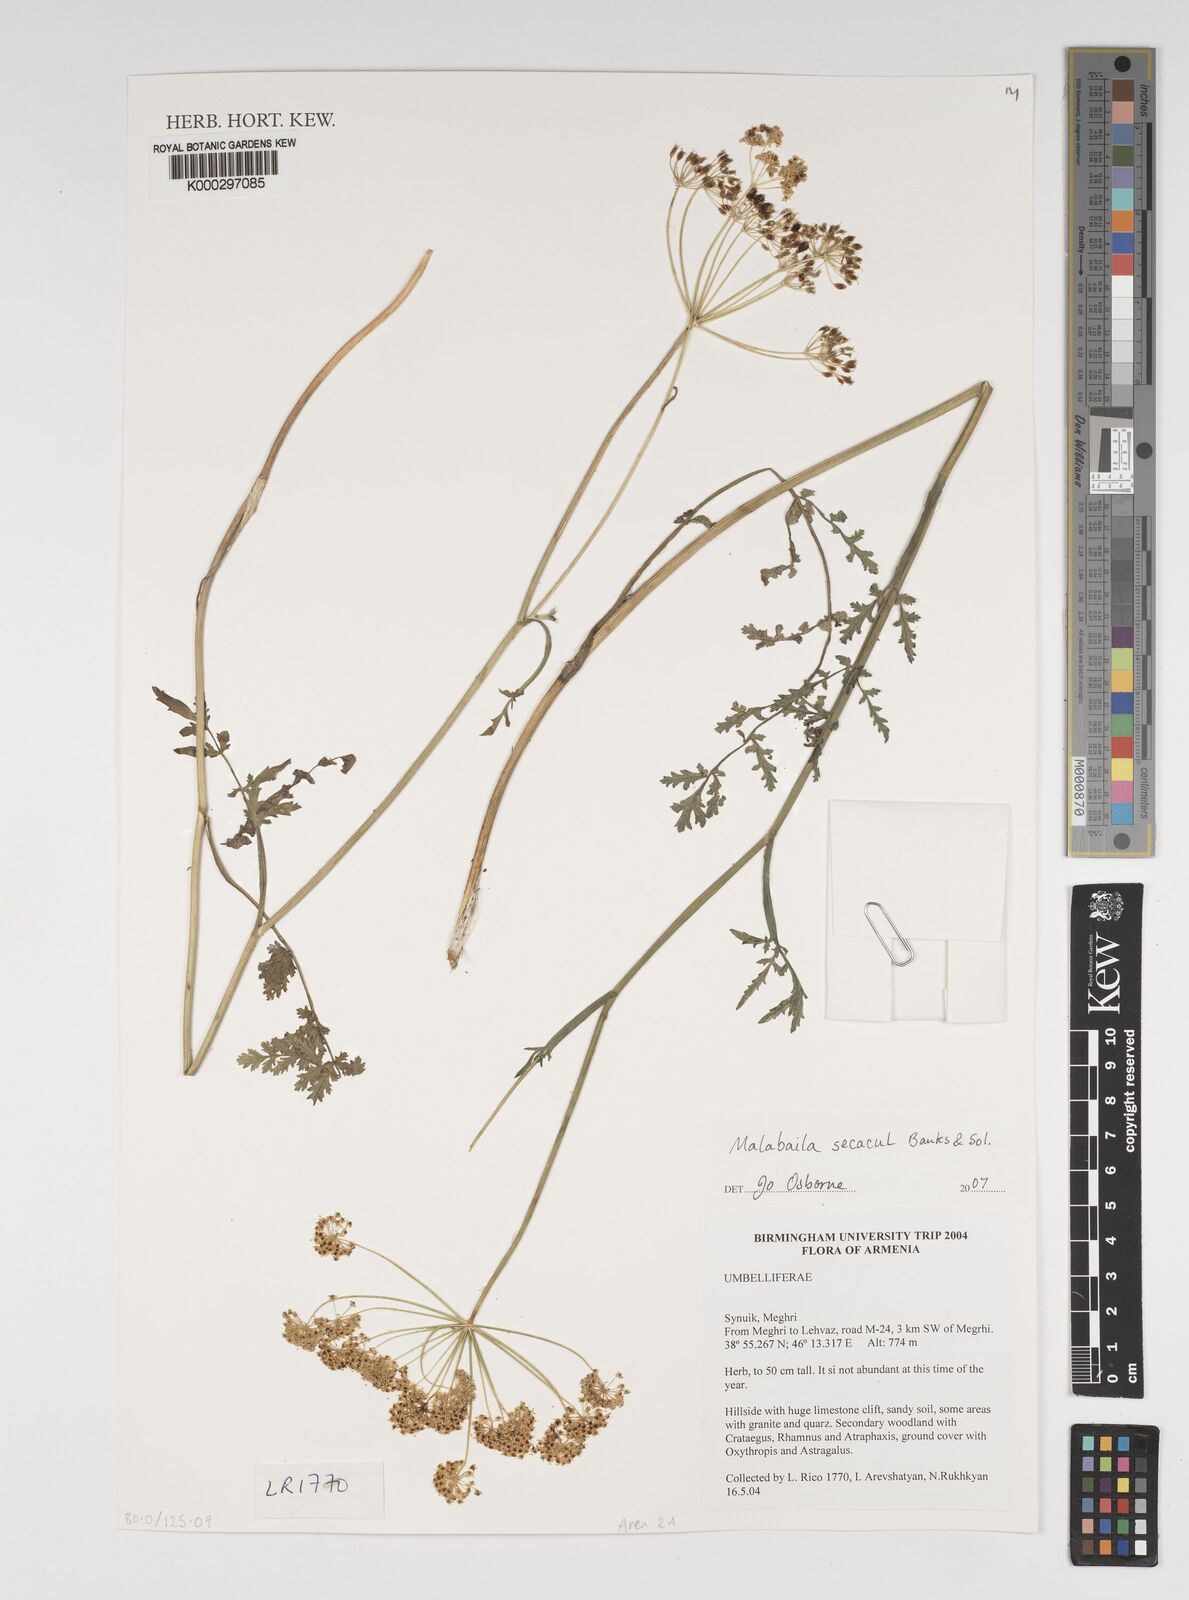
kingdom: Plantae
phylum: Tracheophyta
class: Magnoliopsida
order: Apiales
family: Apiaceae
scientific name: Apiaceae
